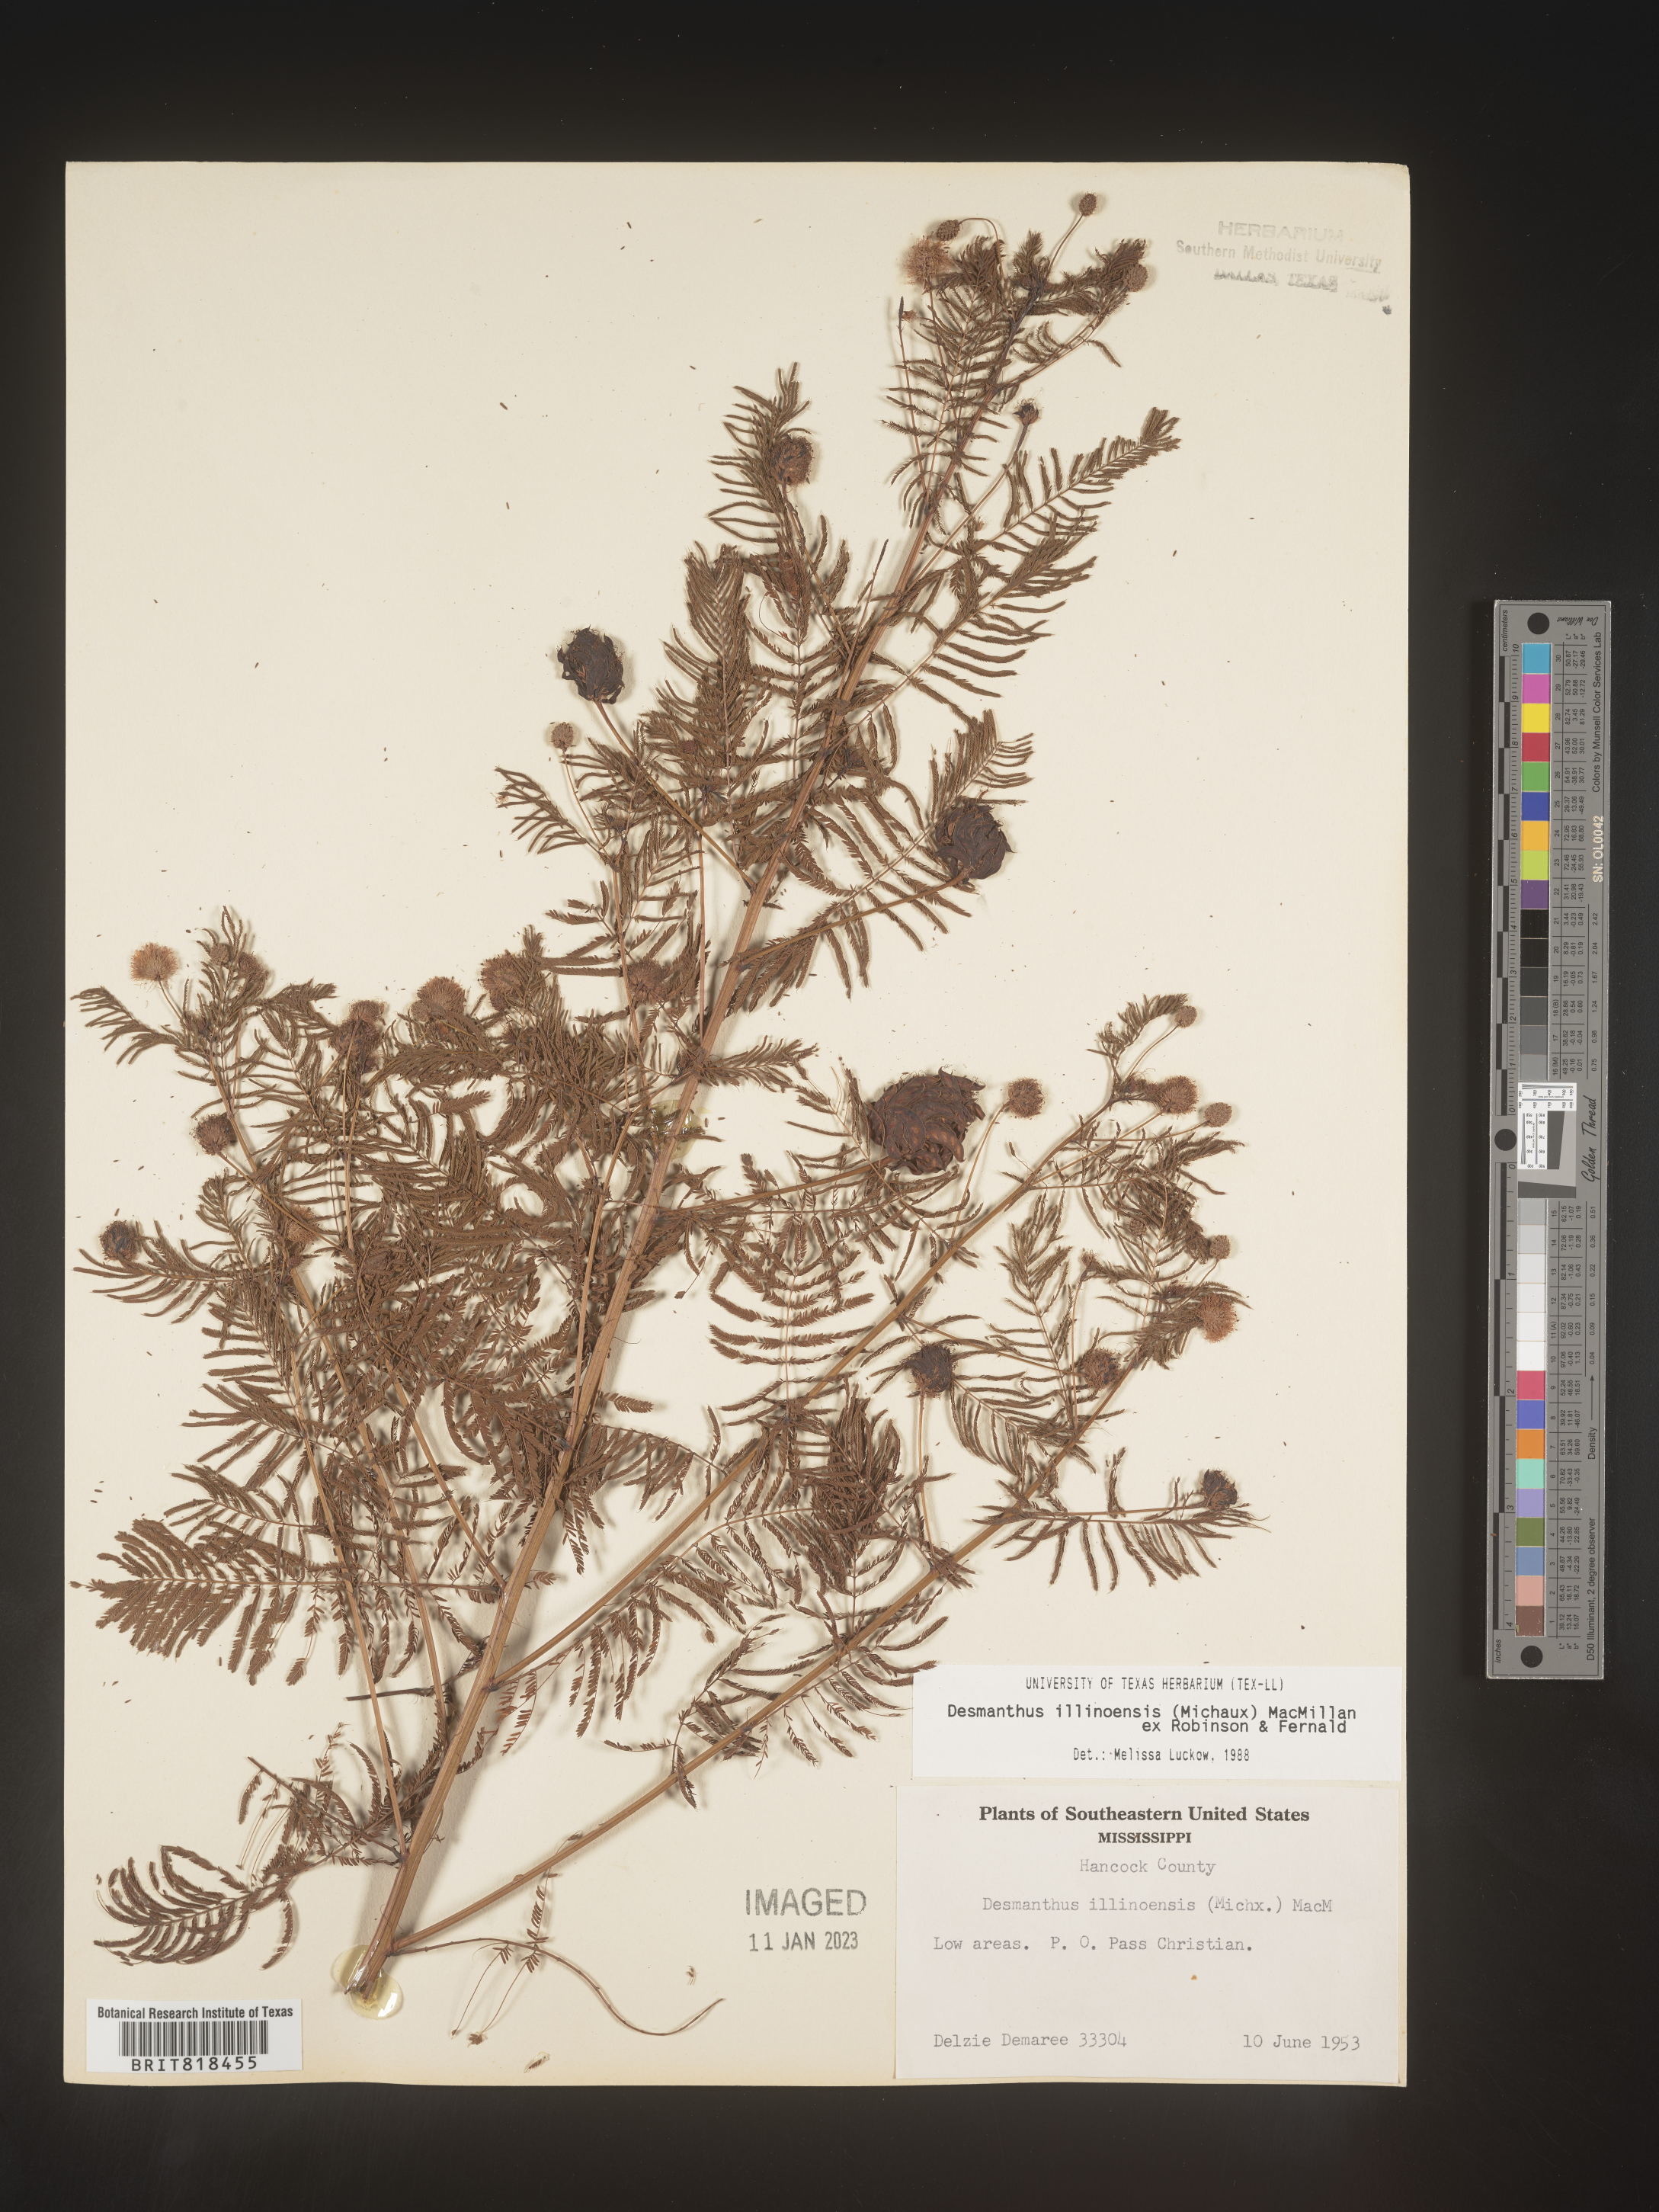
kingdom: Plantae
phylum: Tracheophyta
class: Magnoliopsida
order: Fabales
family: Fabaceae
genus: Desmanthus
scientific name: Desmanthus illinoensis
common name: Illinois bundle-flower
